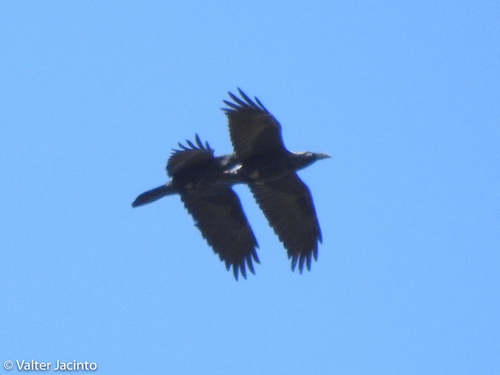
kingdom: Animalia
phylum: Chordata
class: Aves
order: Passeriformes
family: Corvidae
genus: Corvus
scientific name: Corvus corax
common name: Common raven
